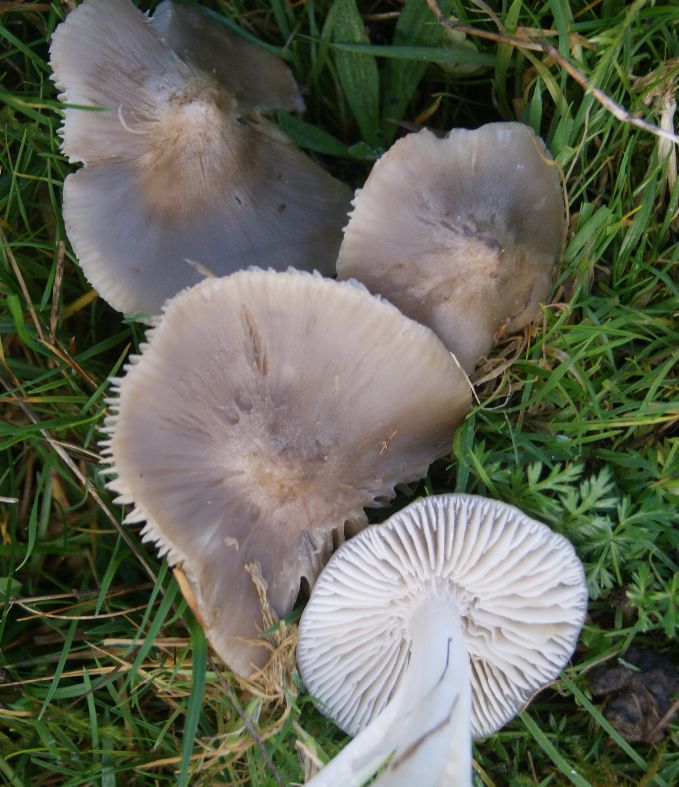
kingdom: Fungi
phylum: Basidiomycota
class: Agaricomycetes
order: Agaricales
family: Hygrophoraceae
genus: Cuphophyllus
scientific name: Cuphophyllus fornicatus
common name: gråbrun vokshat
